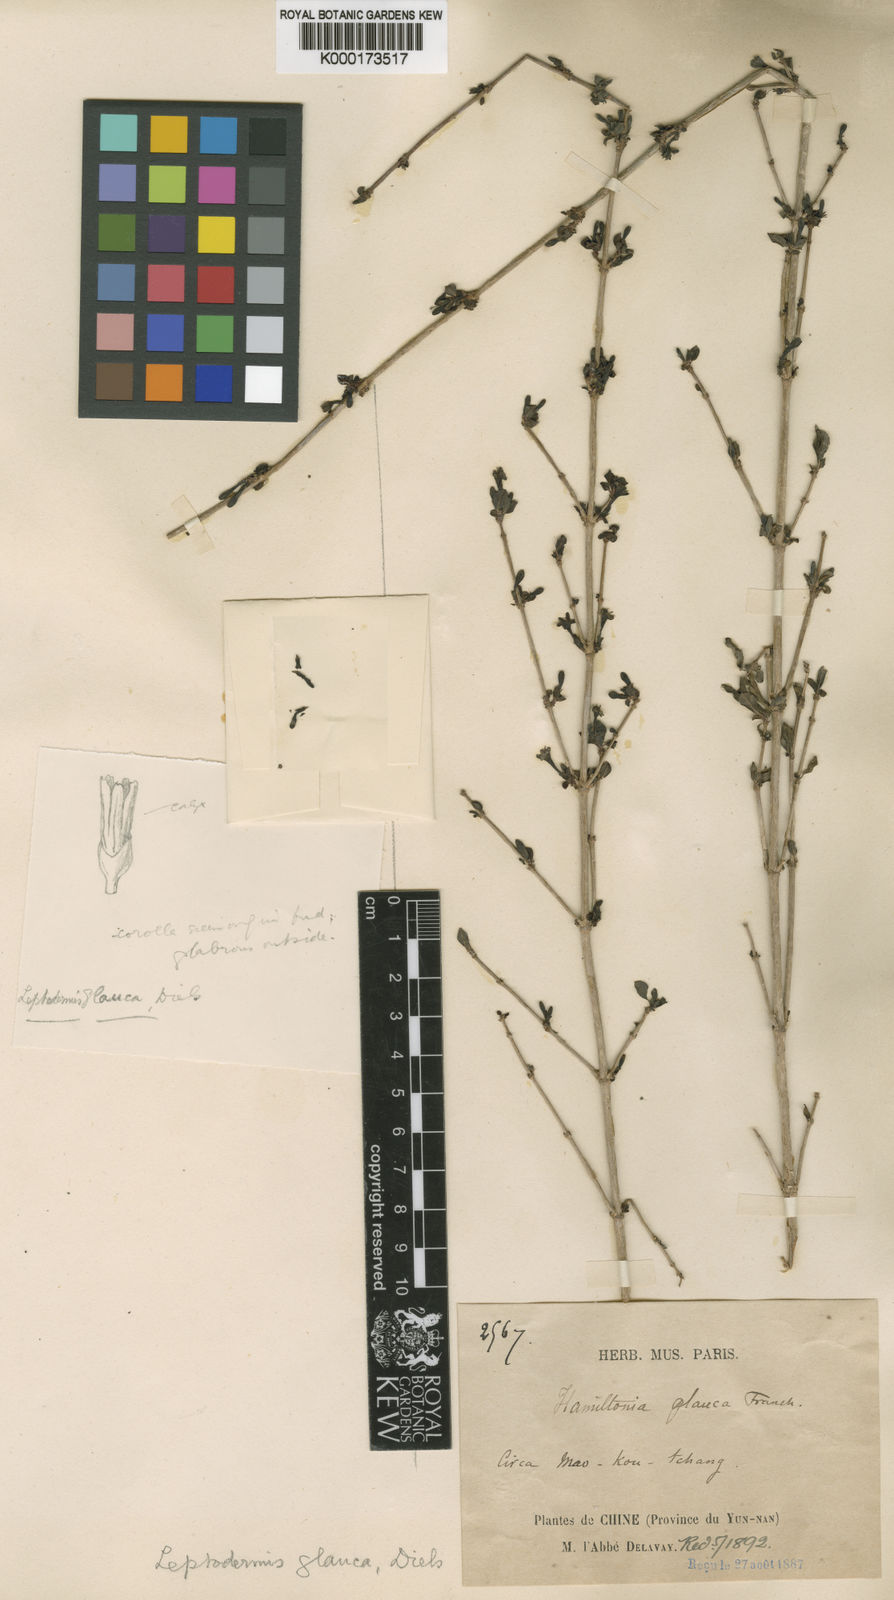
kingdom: Plantae
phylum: Tracheophyta
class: Magnoliopsida
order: Gentianales
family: Rubiaceae
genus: Leptodermis
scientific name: Leptodermis potaninii
